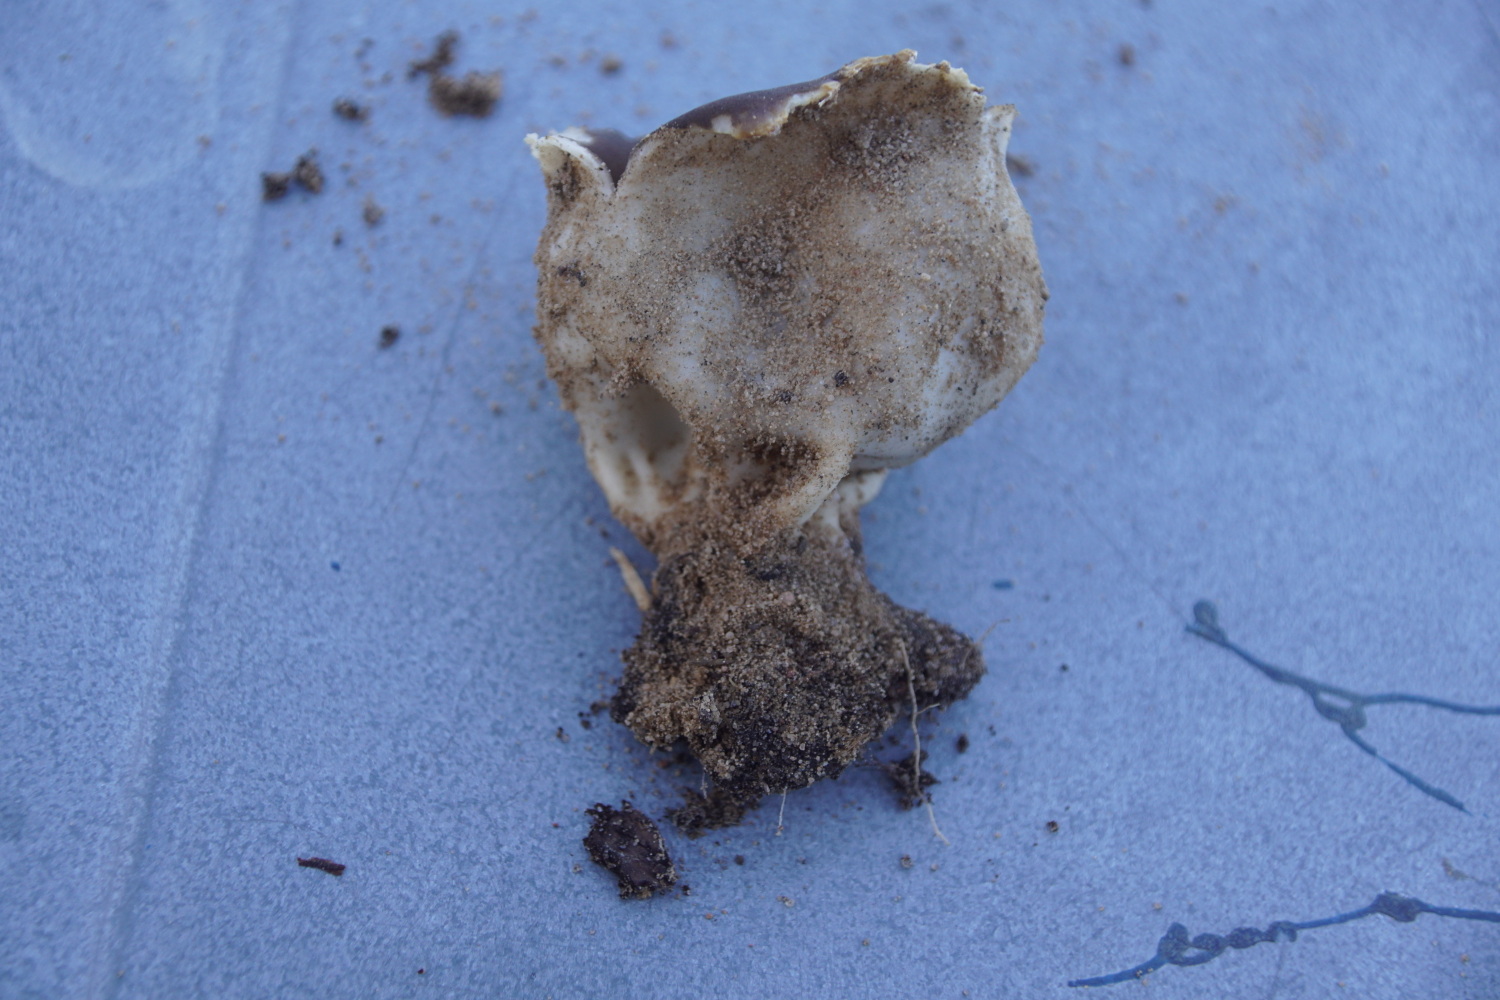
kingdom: Fungi
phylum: Ascomycota
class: Pezizomycetes
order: Pezizales
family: Helvellaceae
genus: Dissingia
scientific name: Dissingia leucomelaena
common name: sorthvid foldhat
